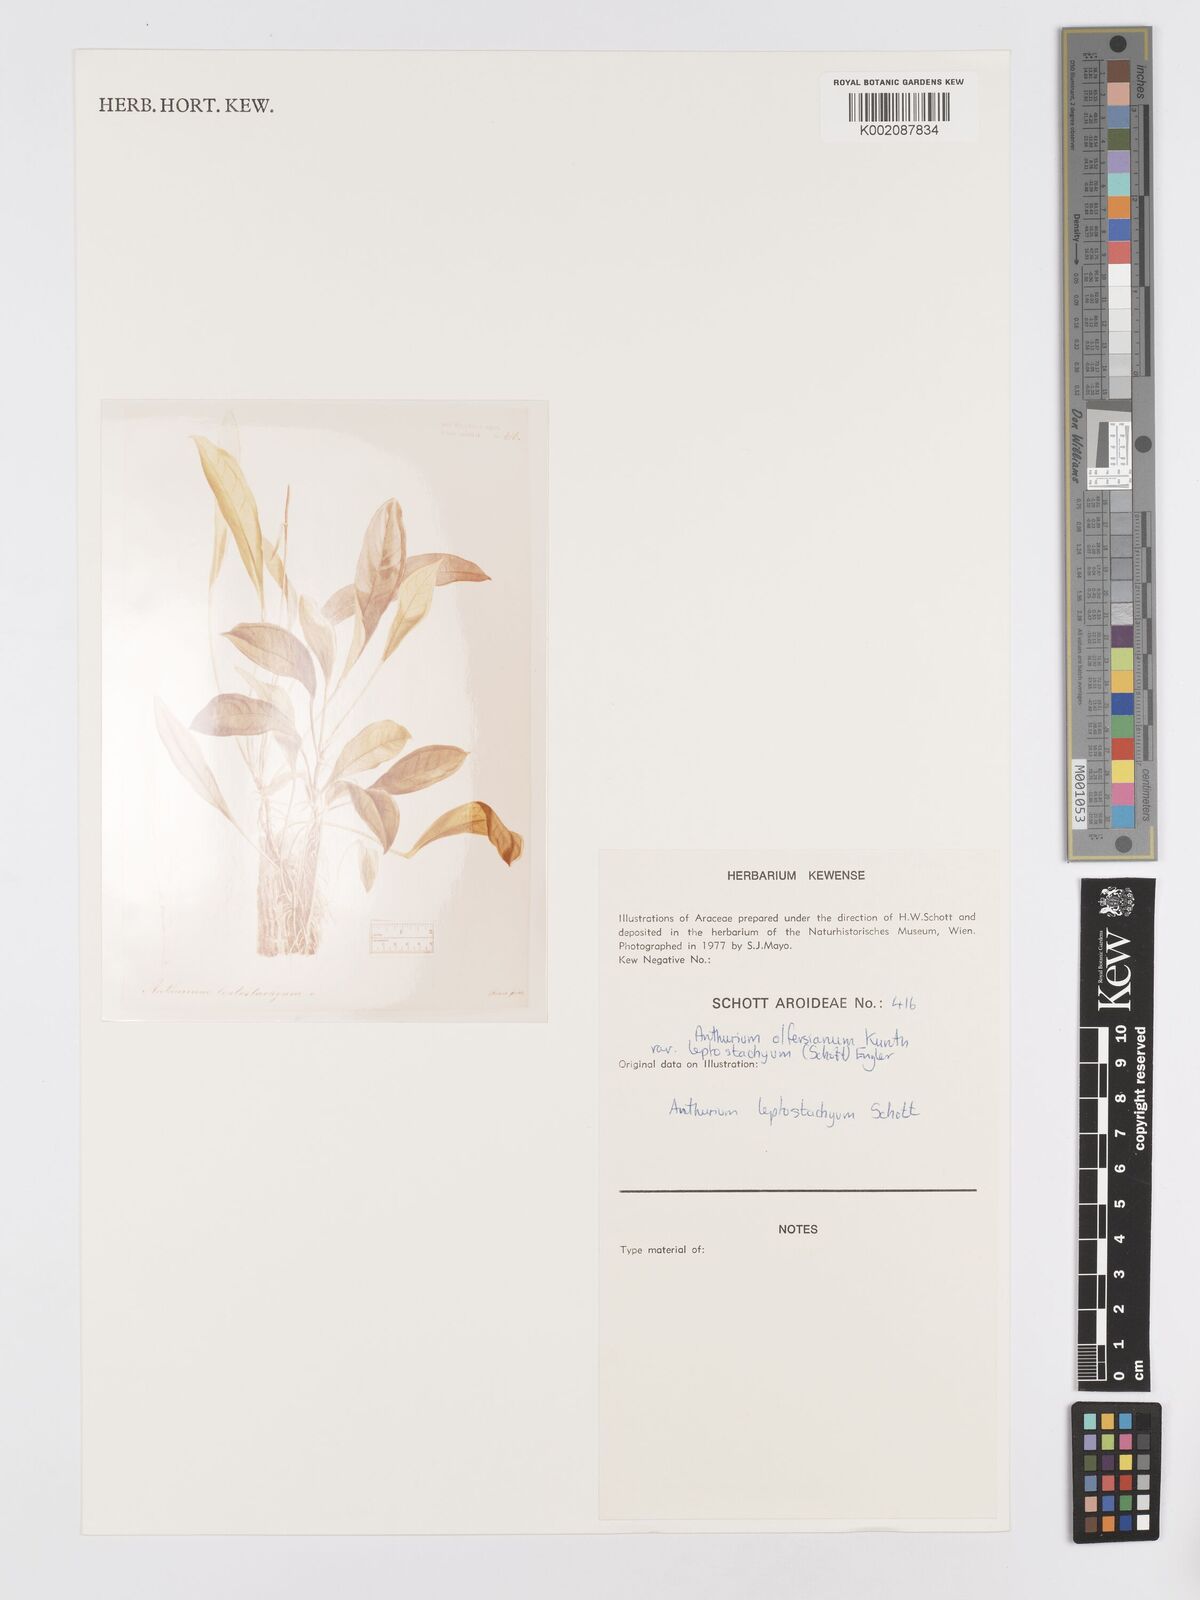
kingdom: Plantae
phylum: Tracheophyta
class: Liliopsida
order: Alismatales
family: Araceae
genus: Anthurium
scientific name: Anthurium intermedium
